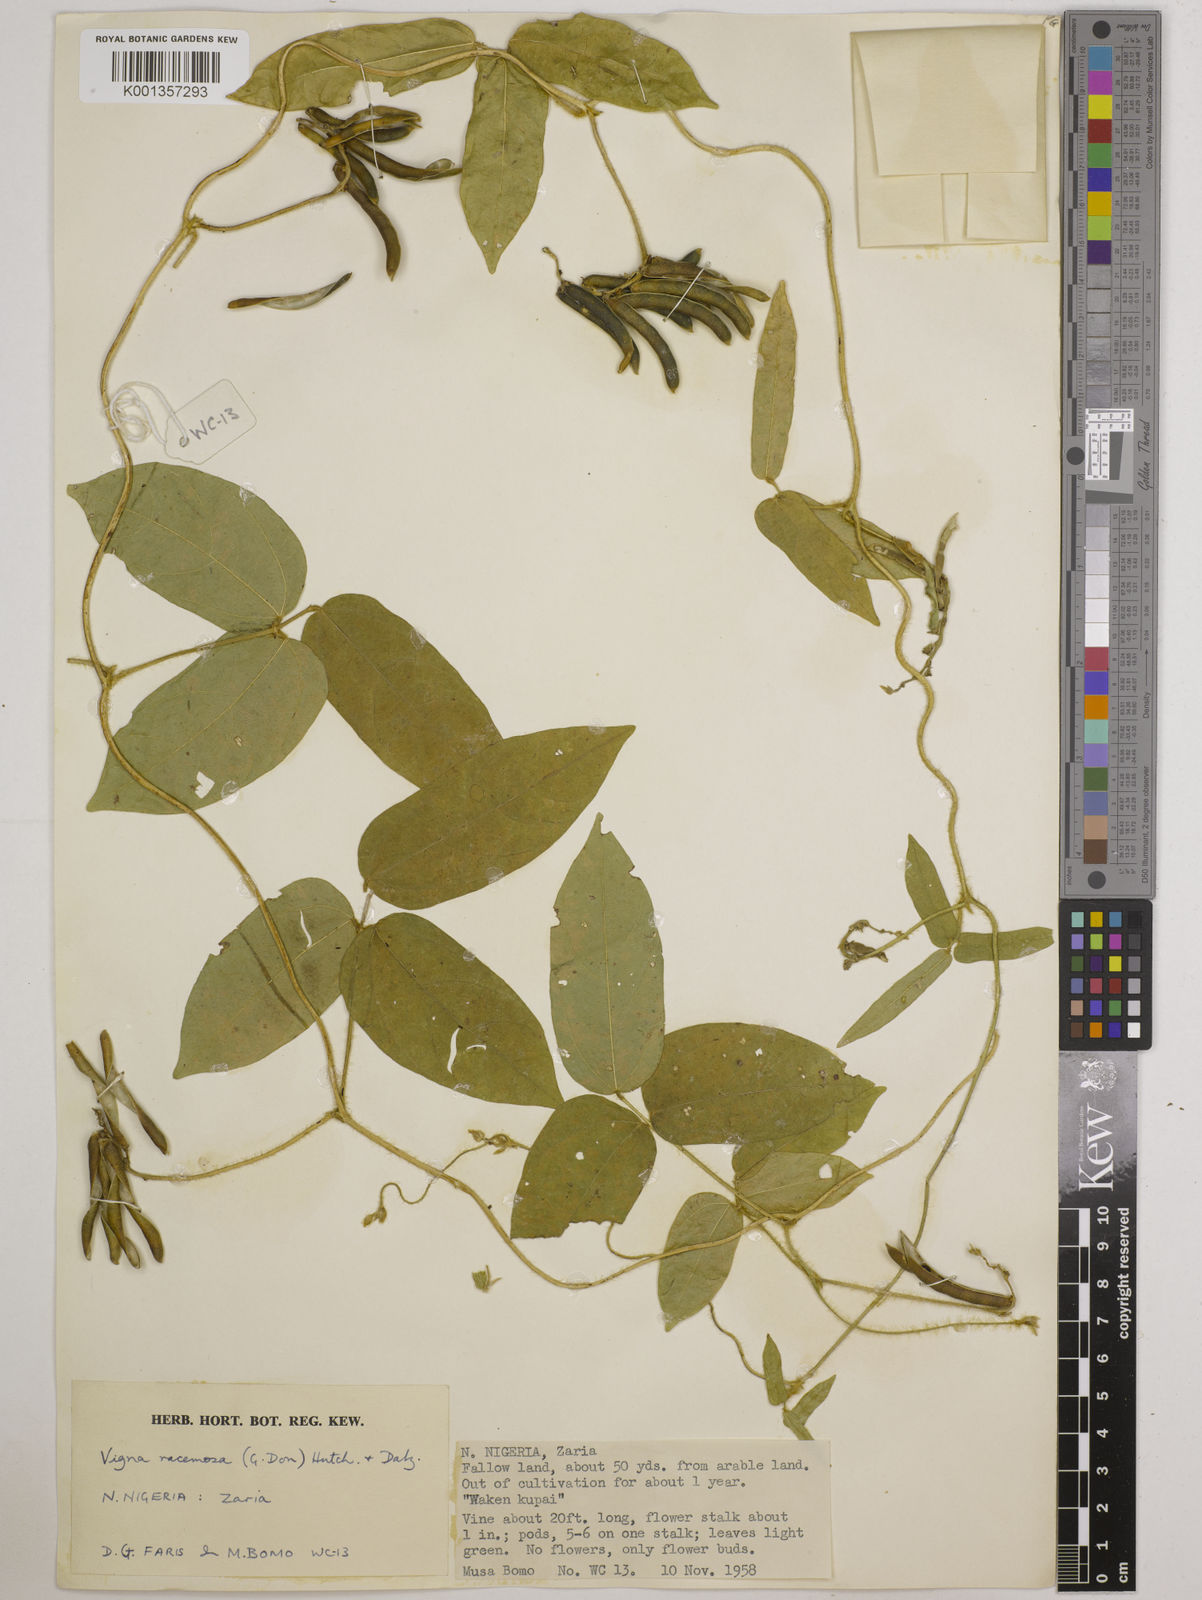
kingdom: Plantae
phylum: Tracheophyta
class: Magnoliopsida
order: Fabales
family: Fabaceae
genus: Vigna
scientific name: Vigna racemosa
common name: Beans not eaten
